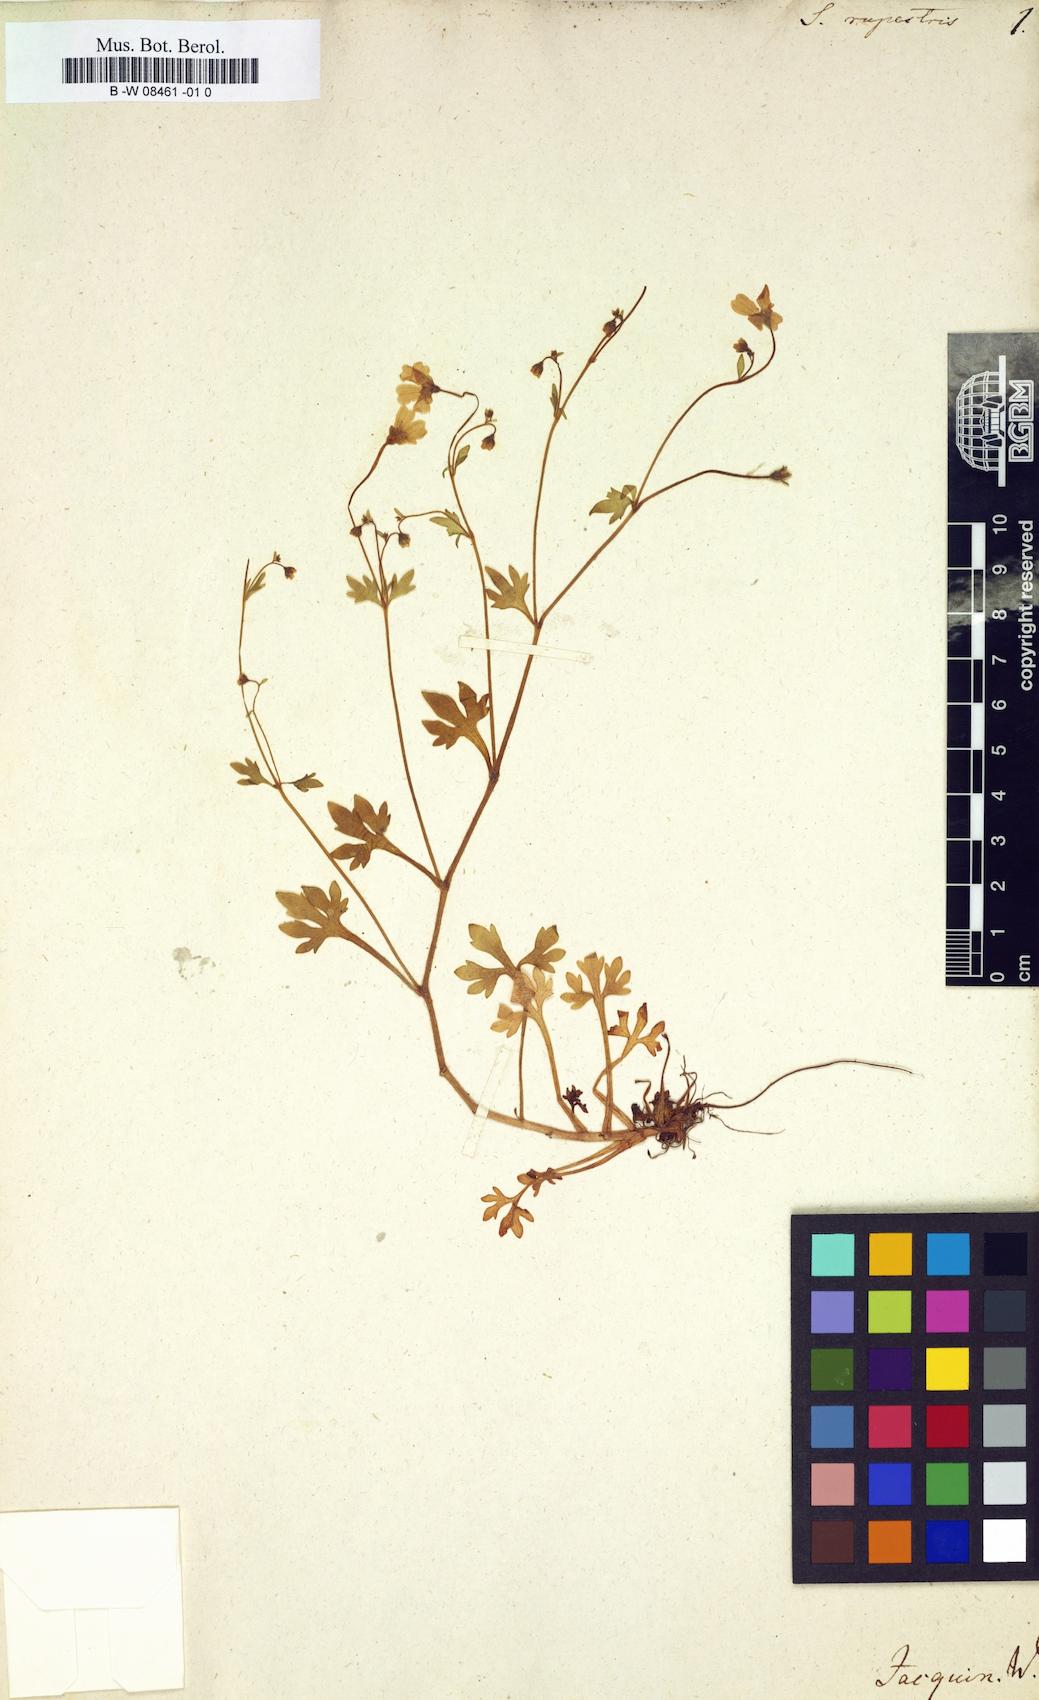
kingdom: Plantae
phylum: Tracheophyta
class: Magnoliopsida
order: Saxifragales
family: Saxifragaceae
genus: Saxifraga
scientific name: Saxifraga
